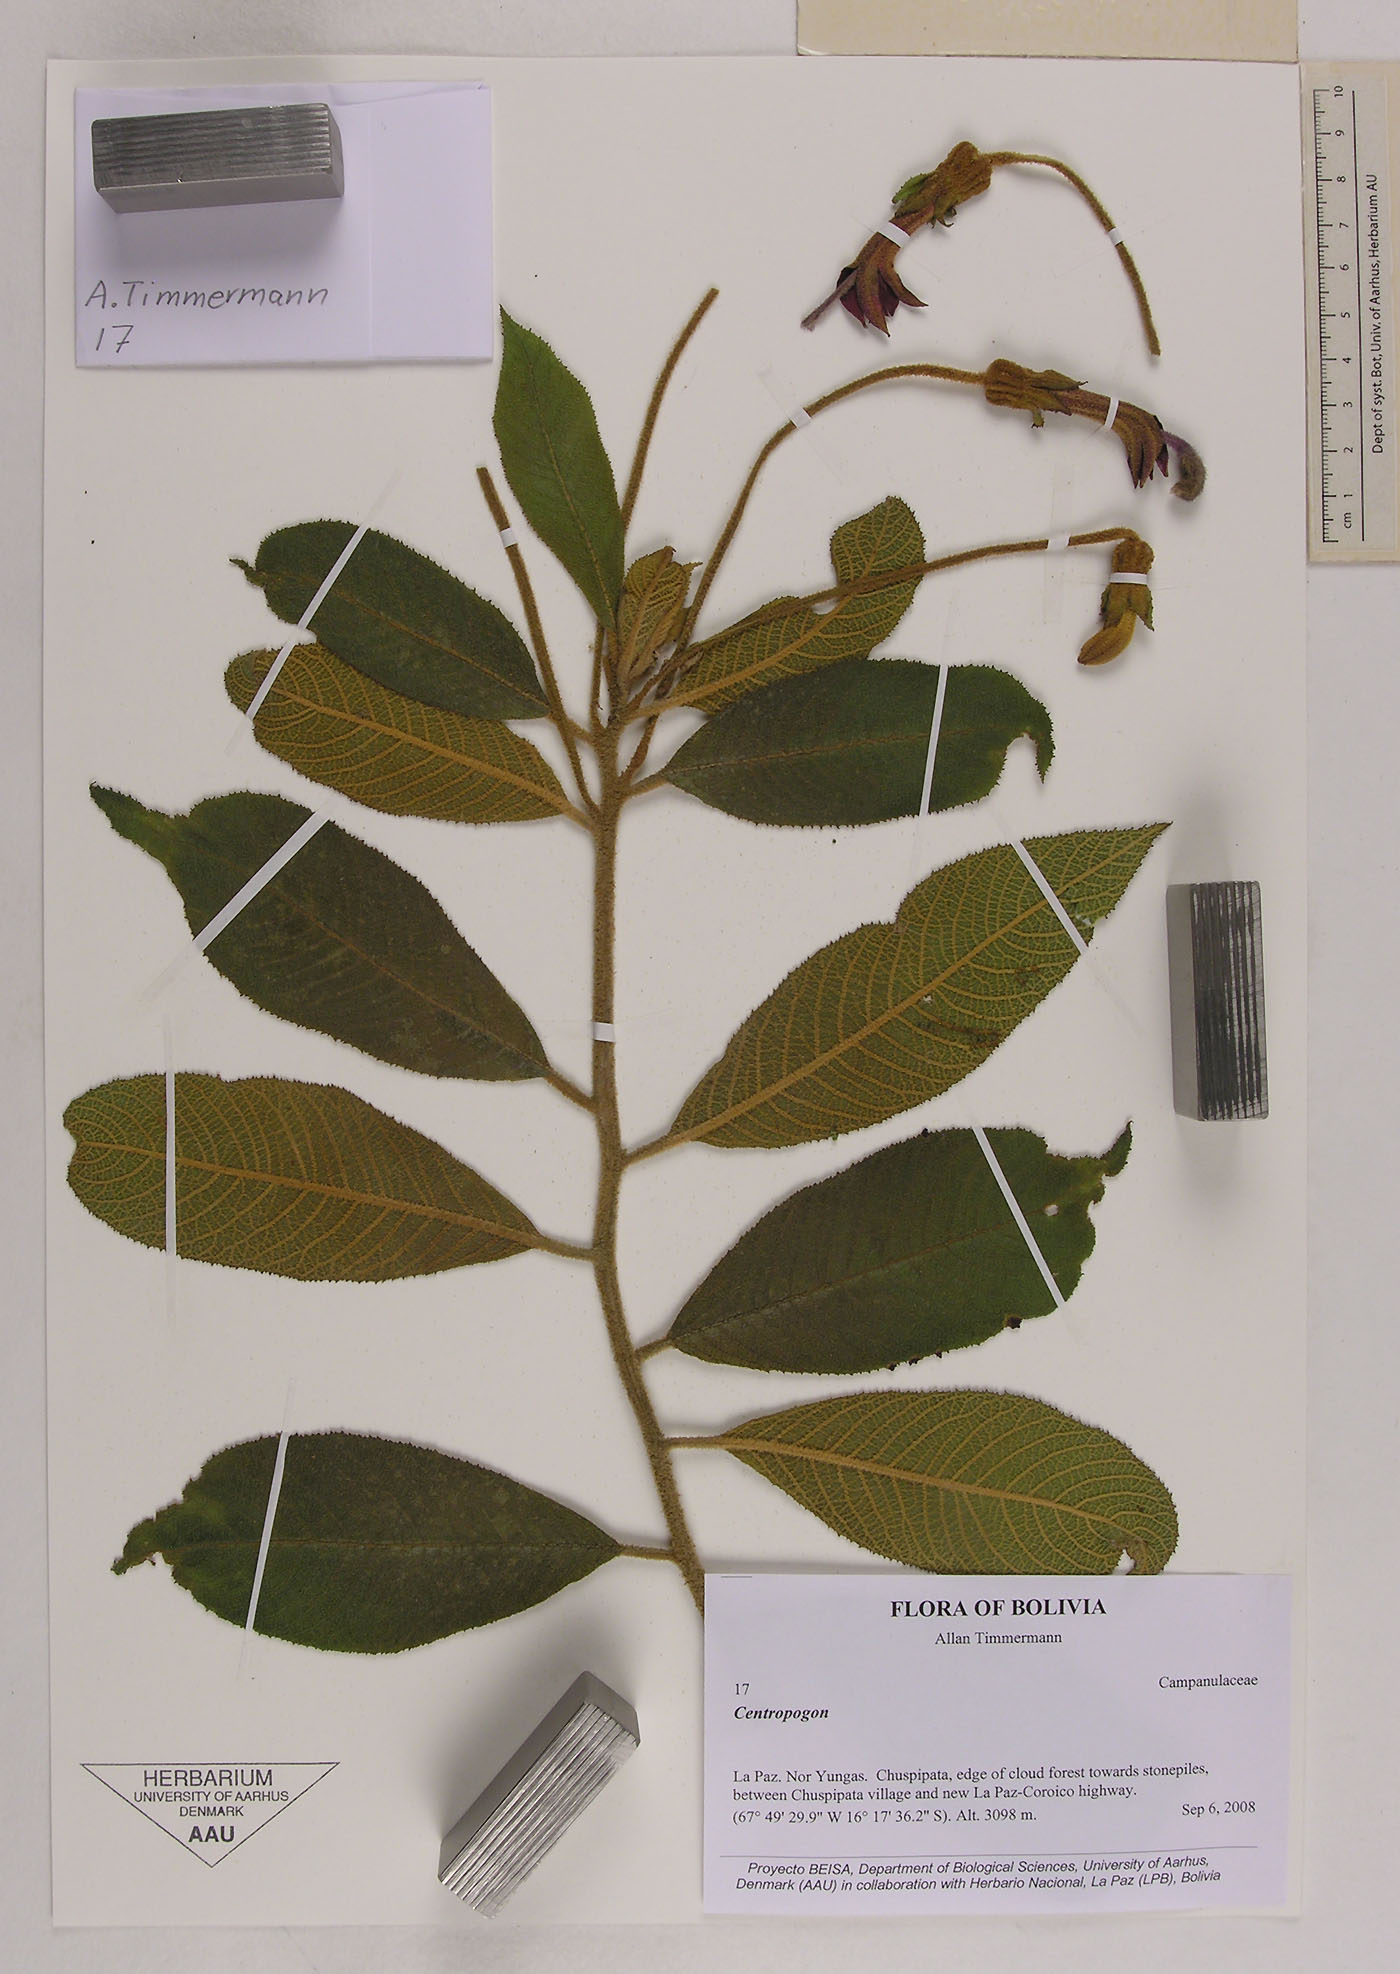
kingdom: Plantae
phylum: Tracheophyta
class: Magnoliopsida
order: Asterales
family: Campanulaceae
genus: Centropogon
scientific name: Centropogon
